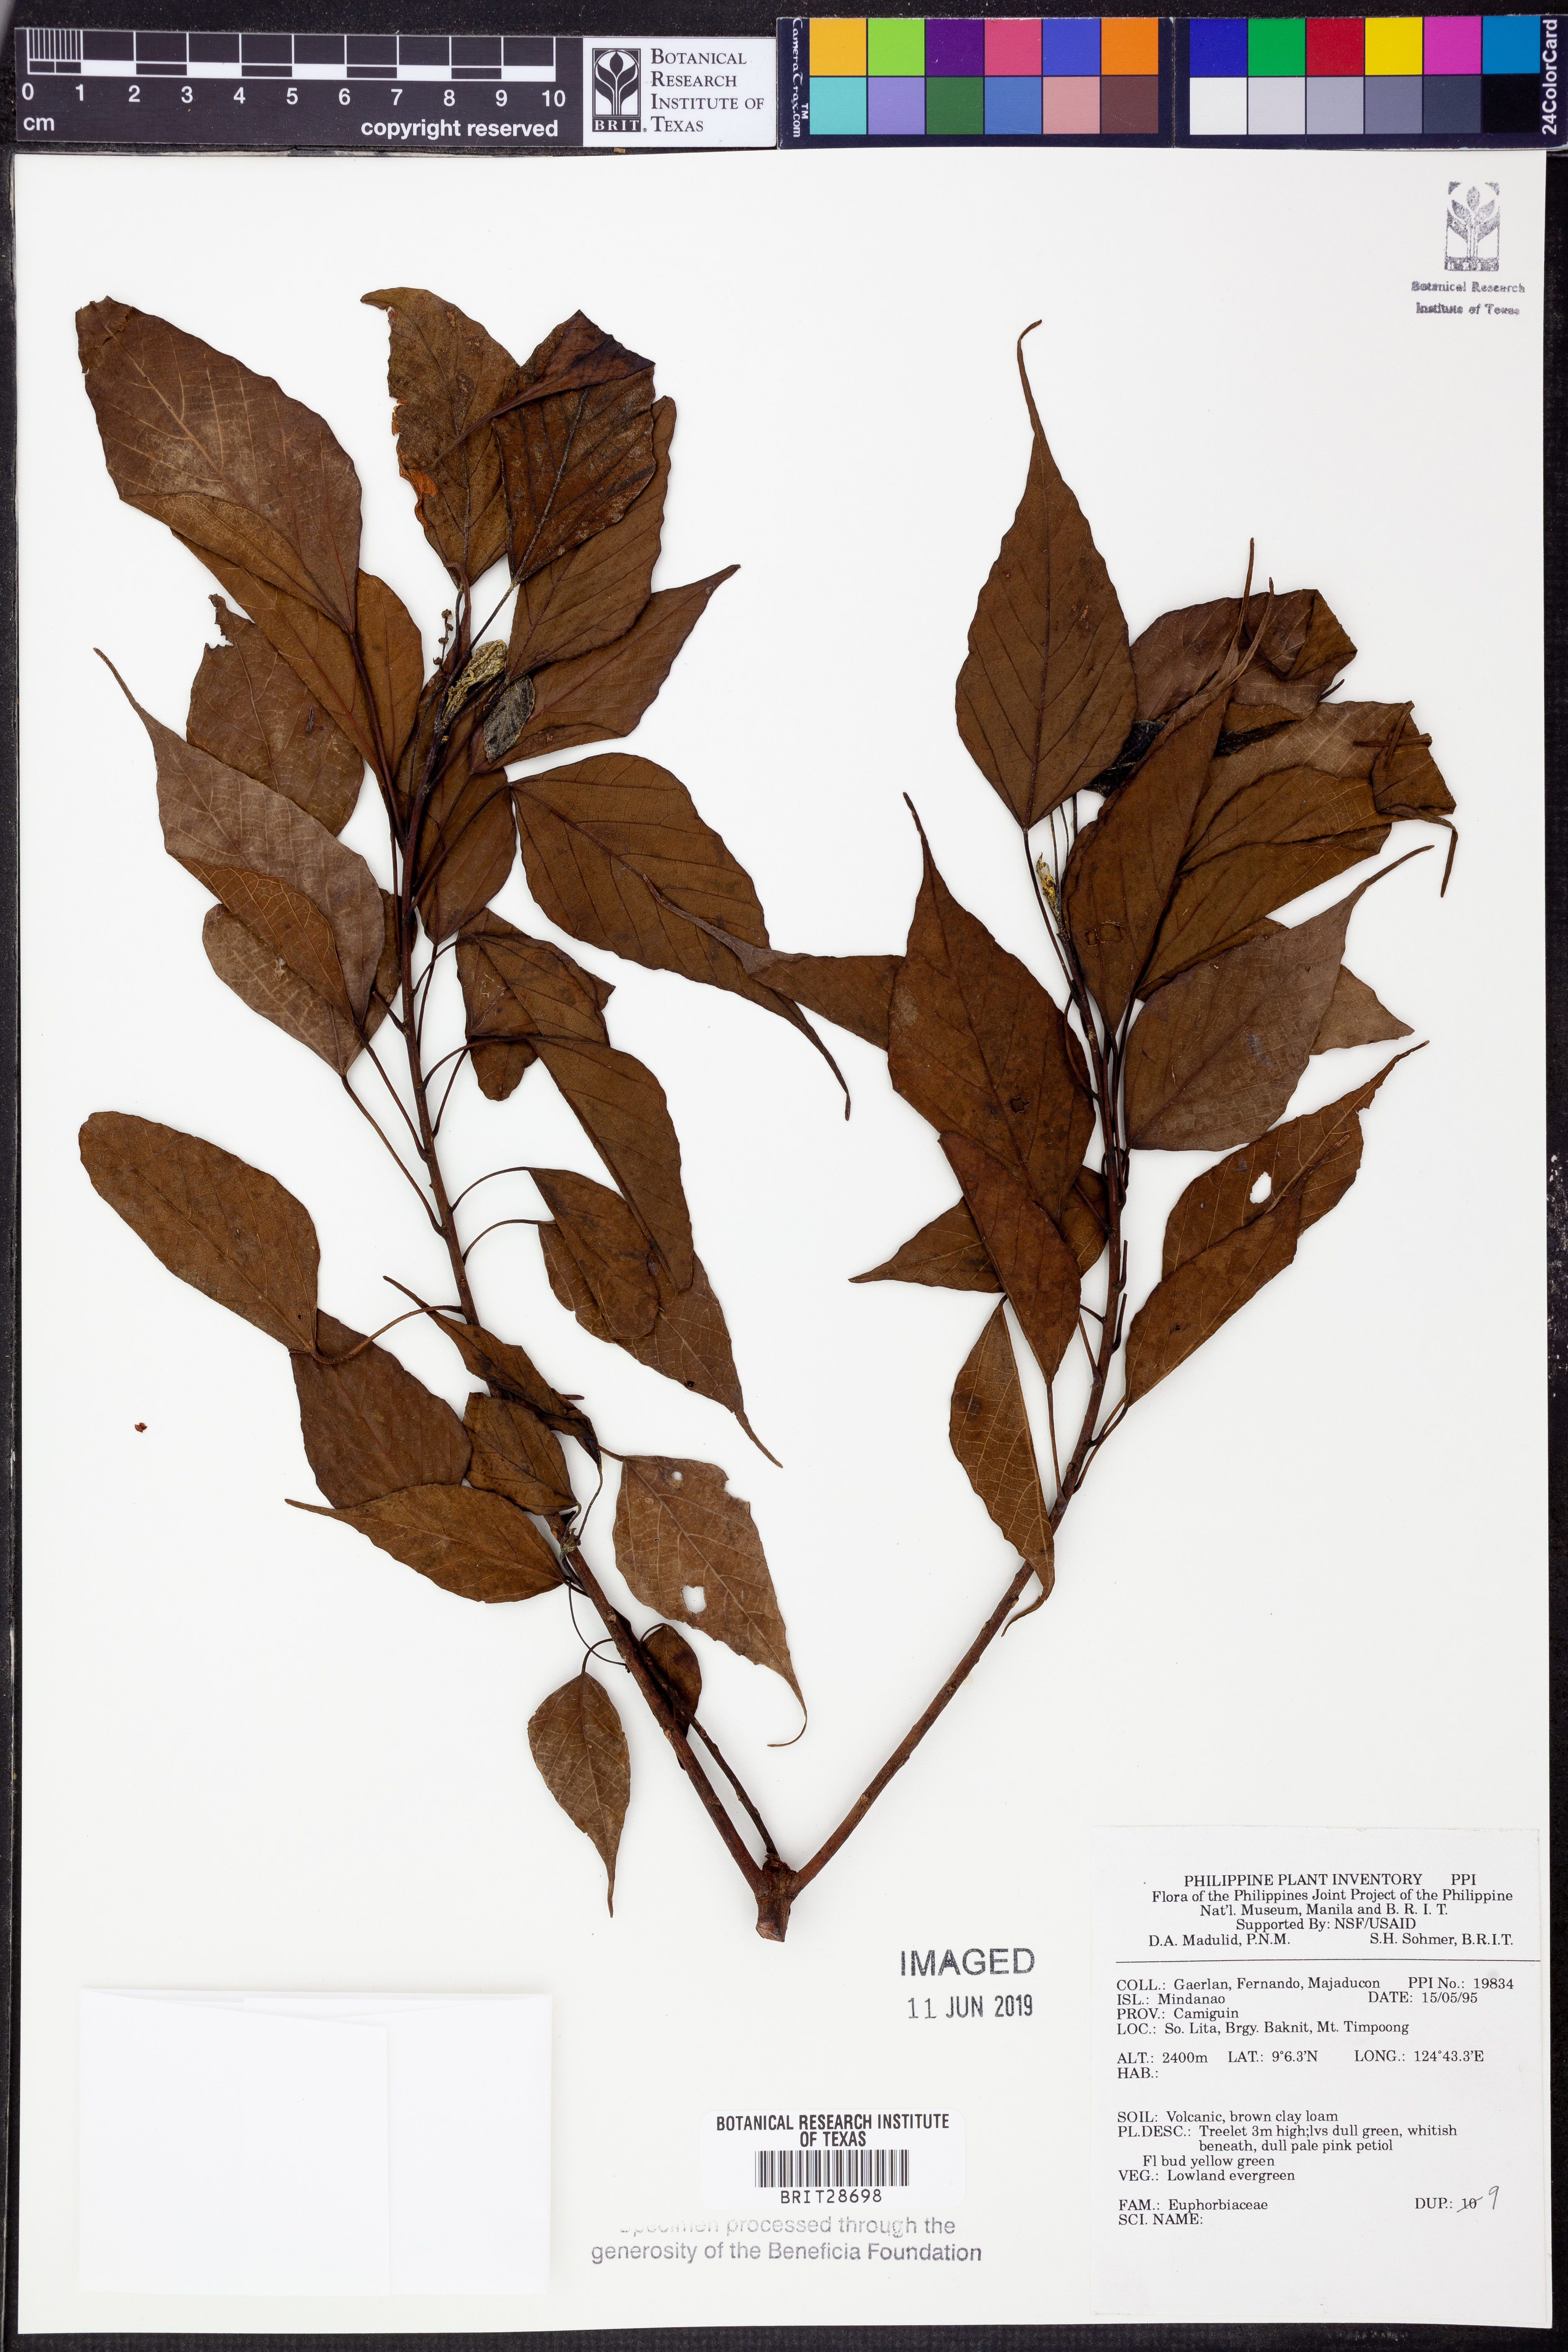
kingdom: Plantae
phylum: Tracheophyta
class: Magnoliopsida
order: Malpighiales
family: Euphorbiaceae
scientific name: Euphorbiaceae
